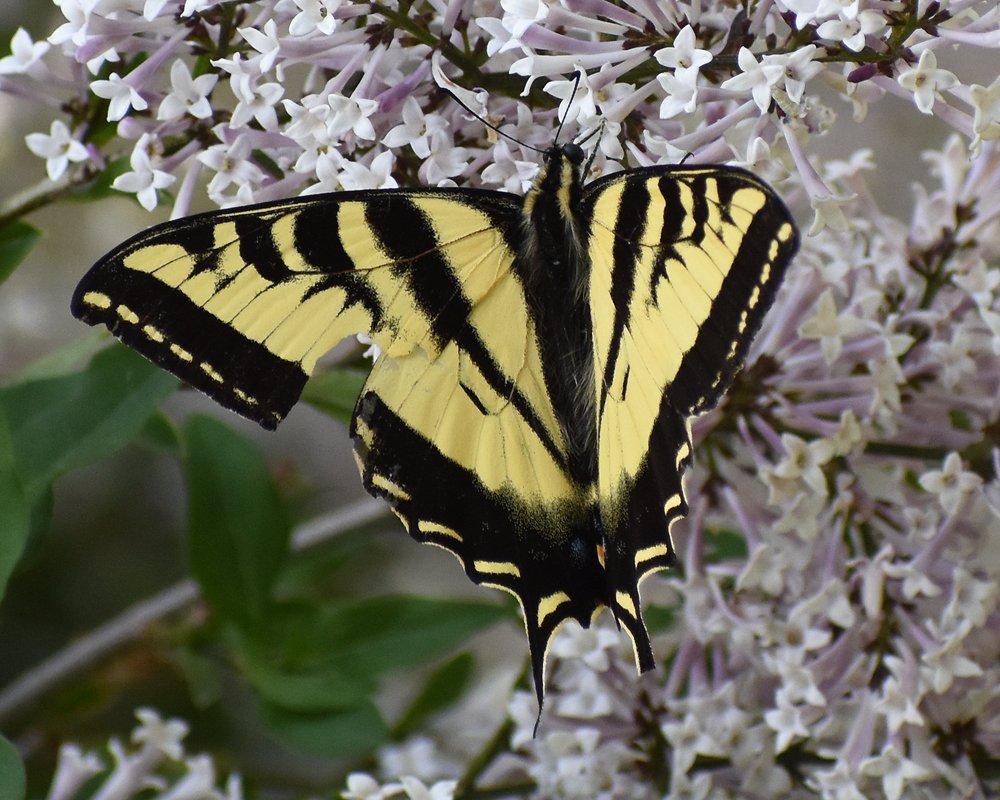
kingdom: Animalia
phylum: Arthropoda
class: Insecta
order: Lepidoptera
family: Papilionidae
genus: Pterourus
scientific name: Pterourus rutulus
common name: Western Tiger Swallowtail
